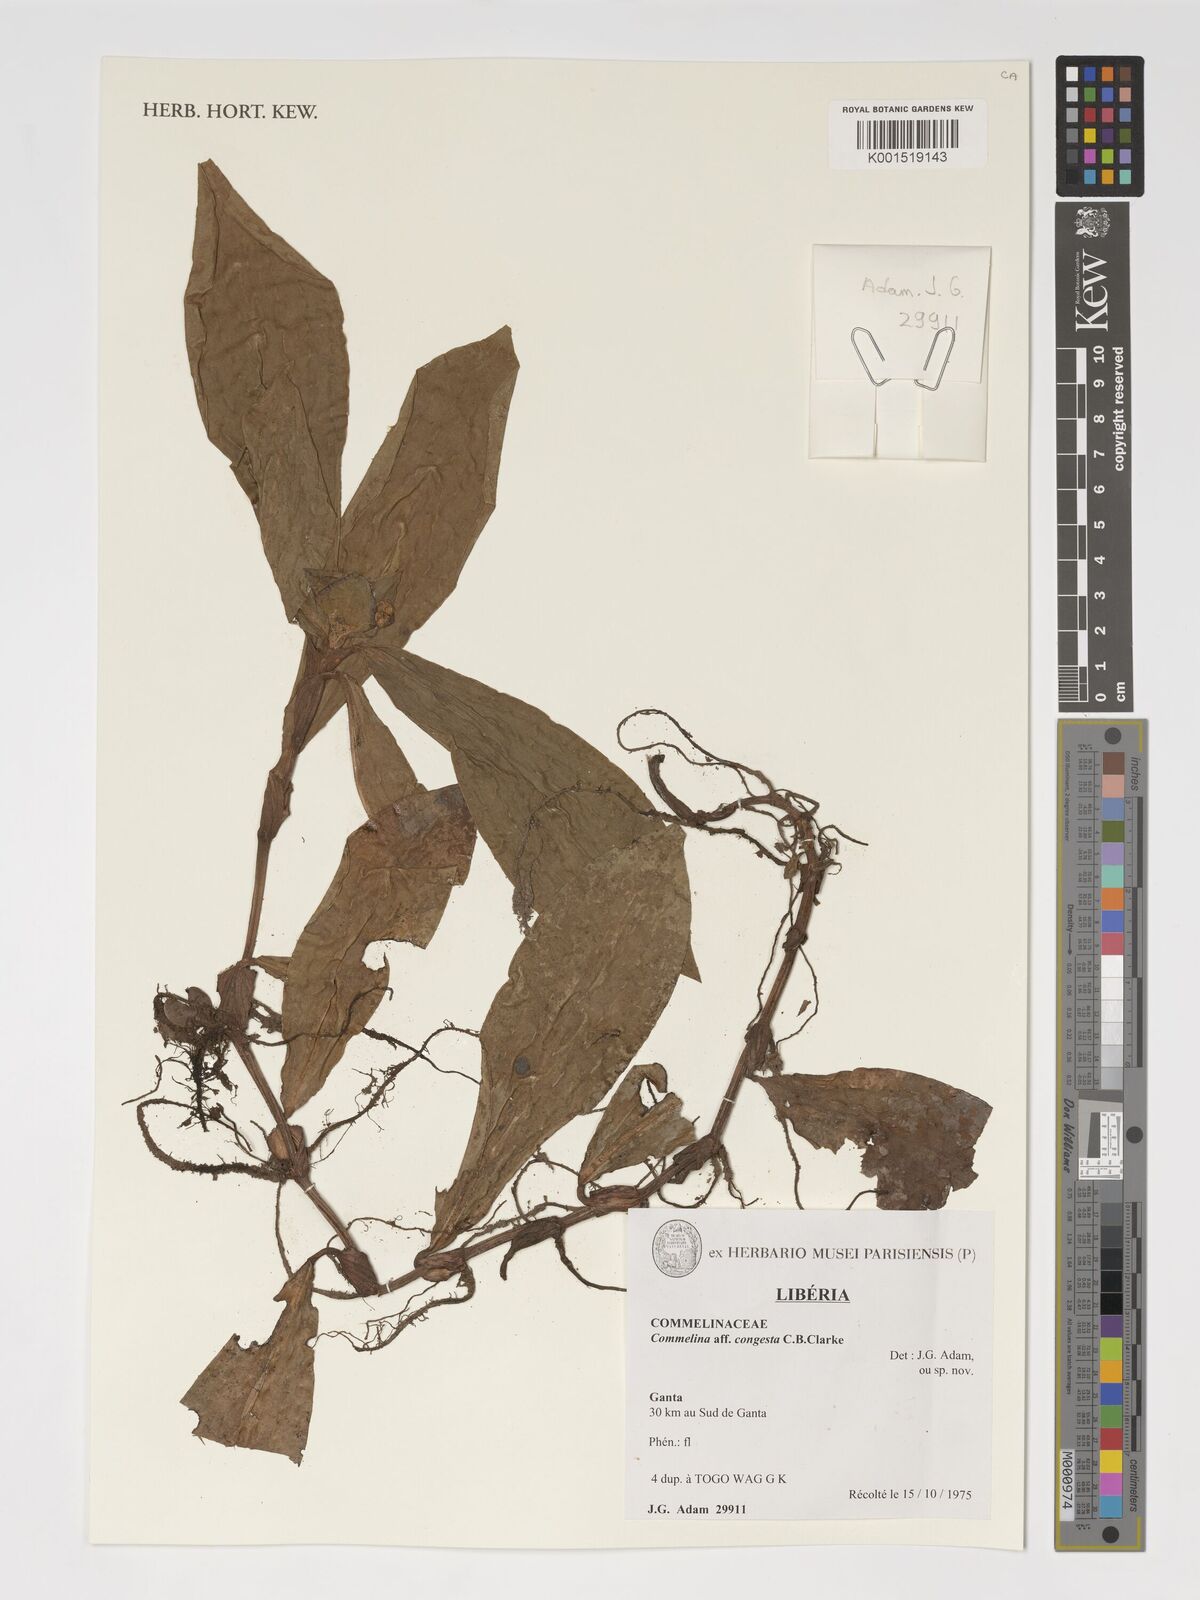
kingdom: Plantae
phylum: Tracheophyta
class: Liliopsida
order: Commelinales
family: Commelinaceae
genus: Commelina
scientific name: Commelina congesta
